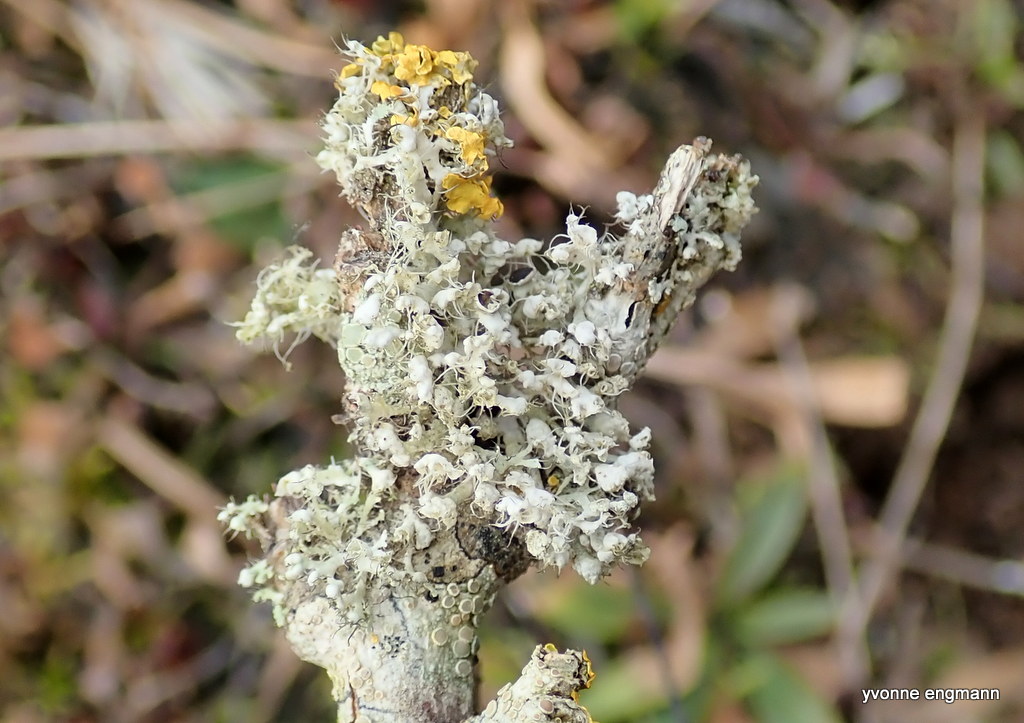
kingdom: Fungi
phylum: Ascomycota
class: Lecanoromycetes
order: Caliciales
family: Physciaceae
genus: Physcia
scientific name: Physcia adscendens
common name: hætte-rosetlav
